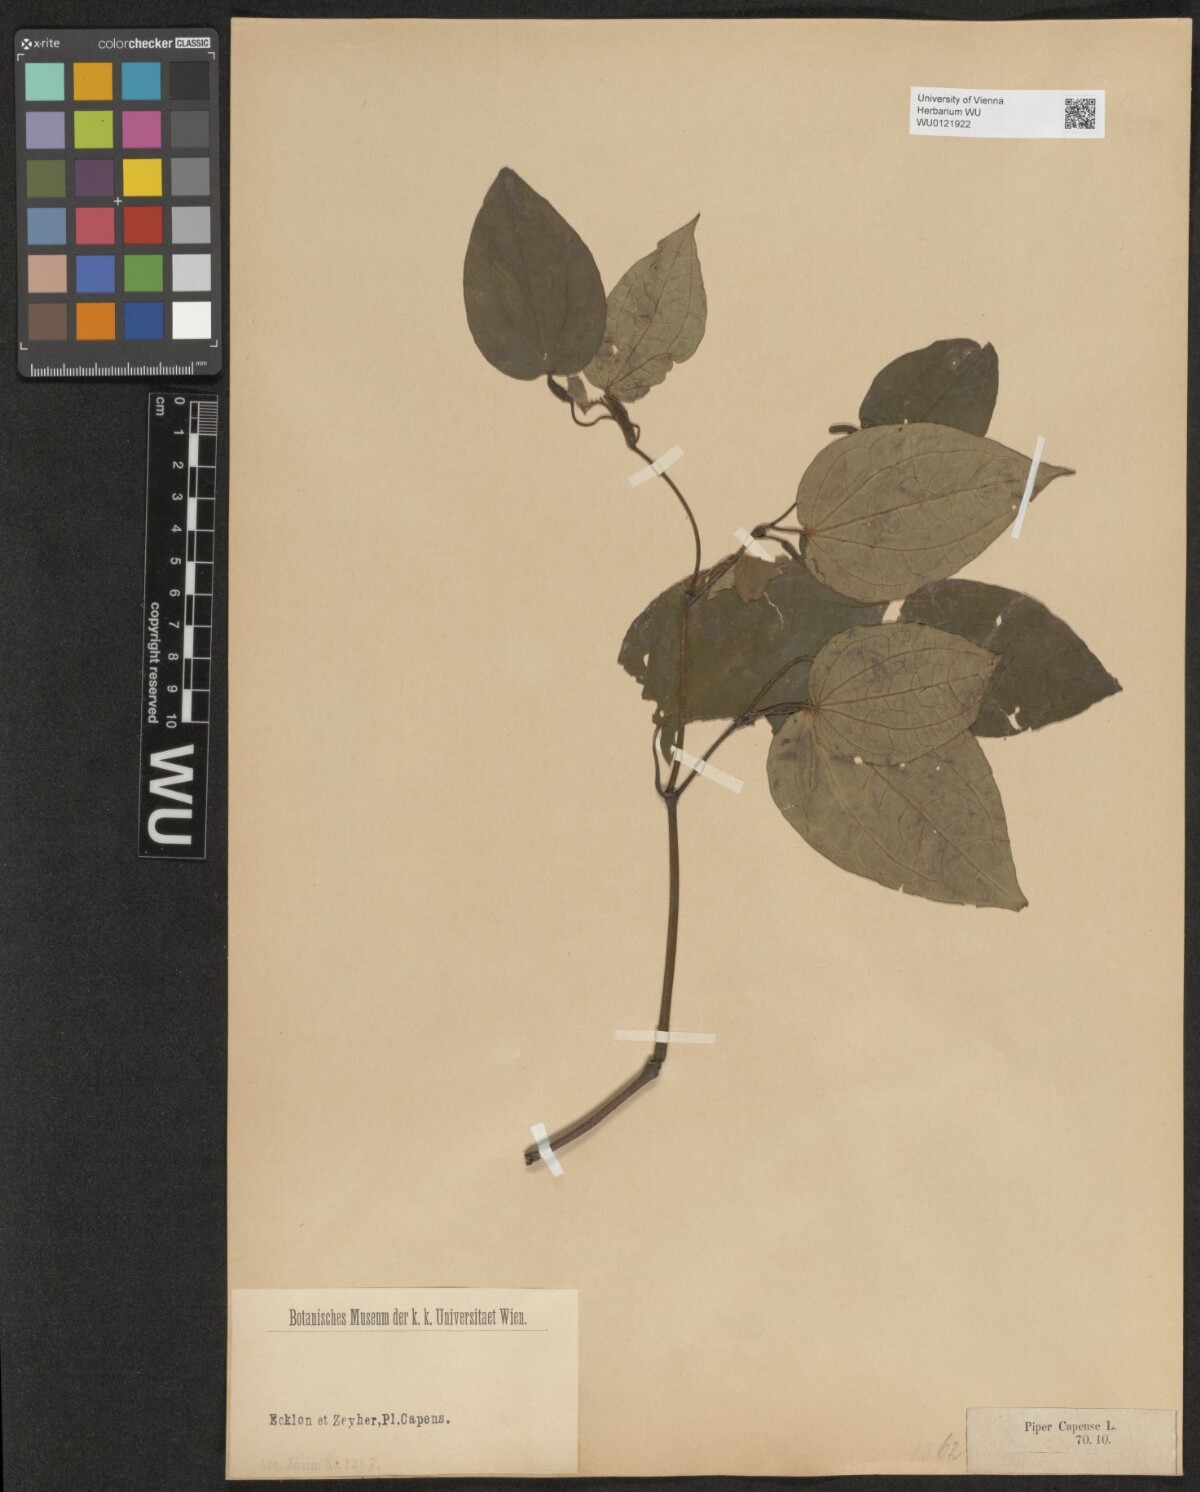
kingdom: Plantae
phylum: Tracheophyta
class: Magnoliopsida
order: Piperales
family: Piperaceae
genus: Piper
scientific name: Piper capense
